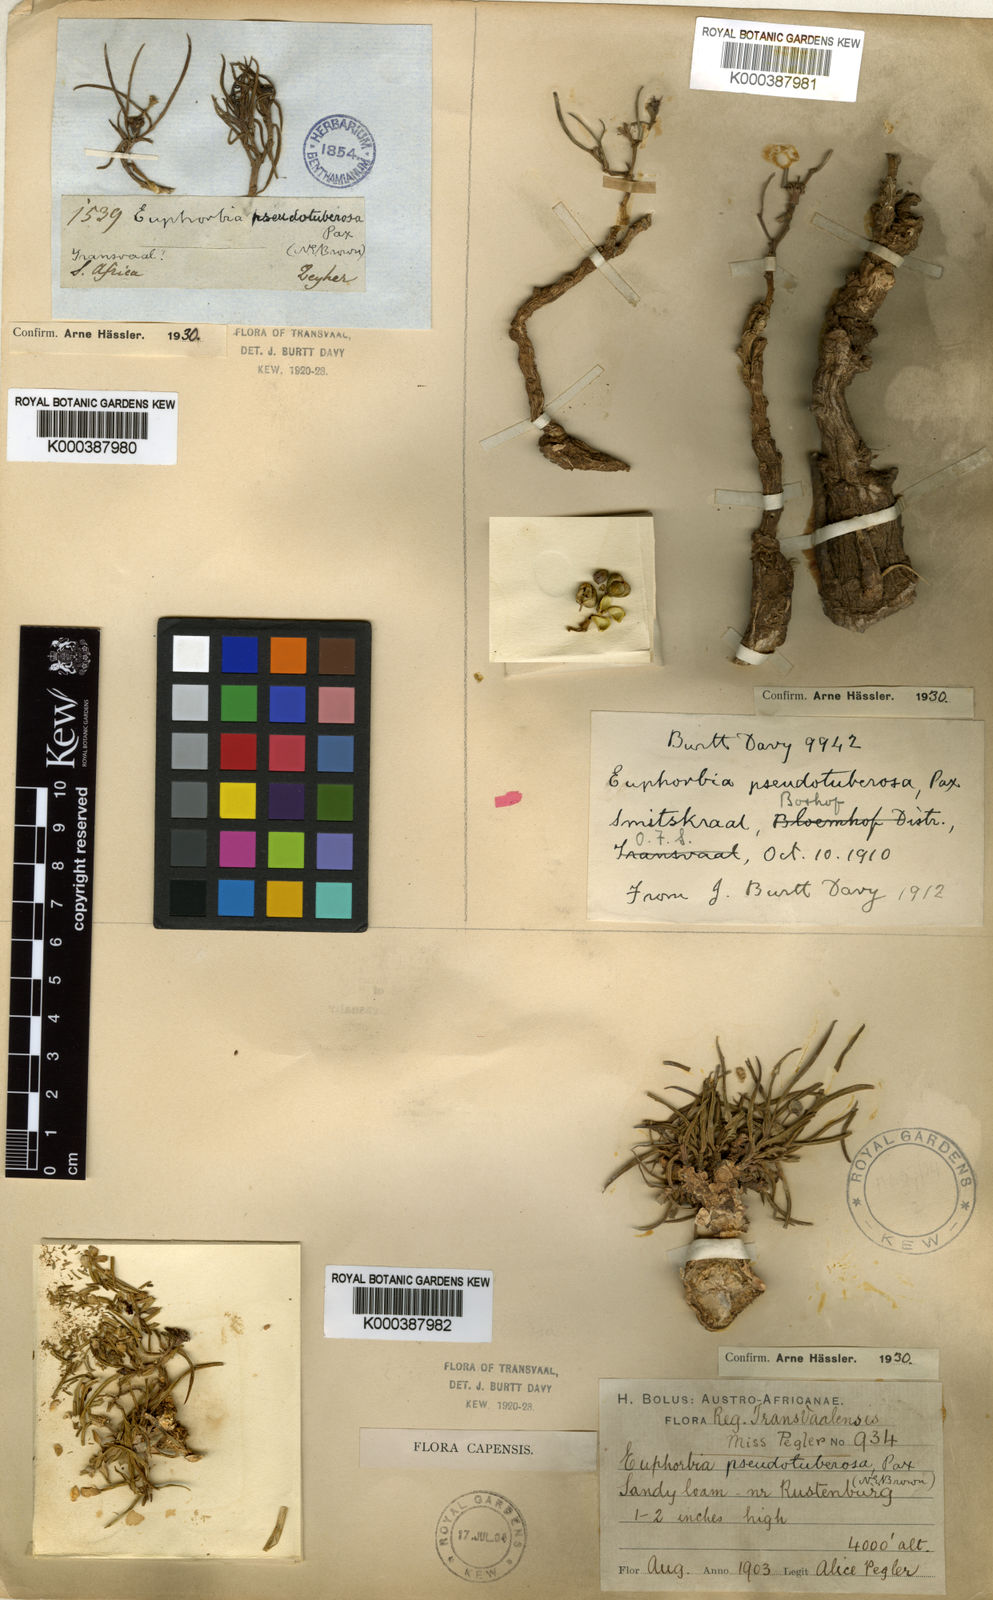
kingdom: Plantae
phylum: Tracheophyta
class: Magnoliopsida
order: Malpighiales
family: Euphorbiaceae
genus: Euphorbia
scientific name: Euphorbia pseudotuberosa
